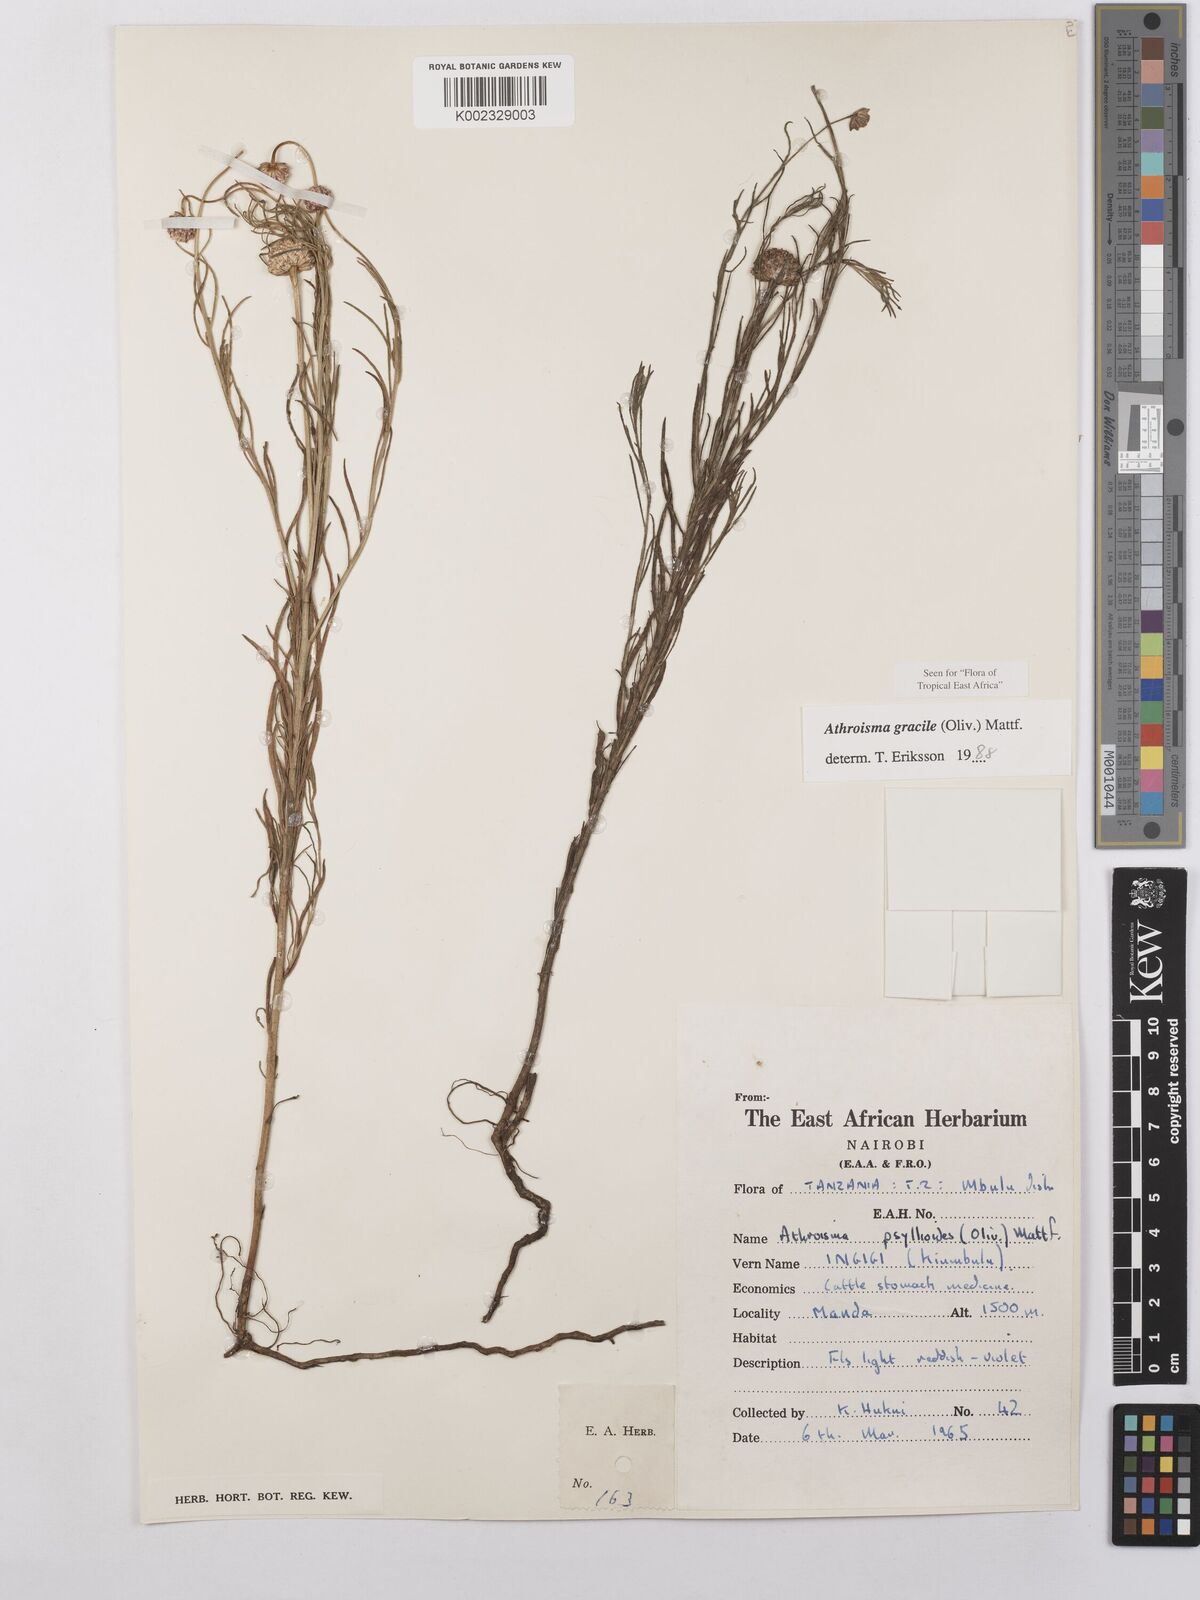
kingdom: Plantae
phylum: Tracheophyta
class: Magnoliopsida
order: Asterales
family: Asteraceae
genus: Athroisma
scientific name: Athroisma gracile
